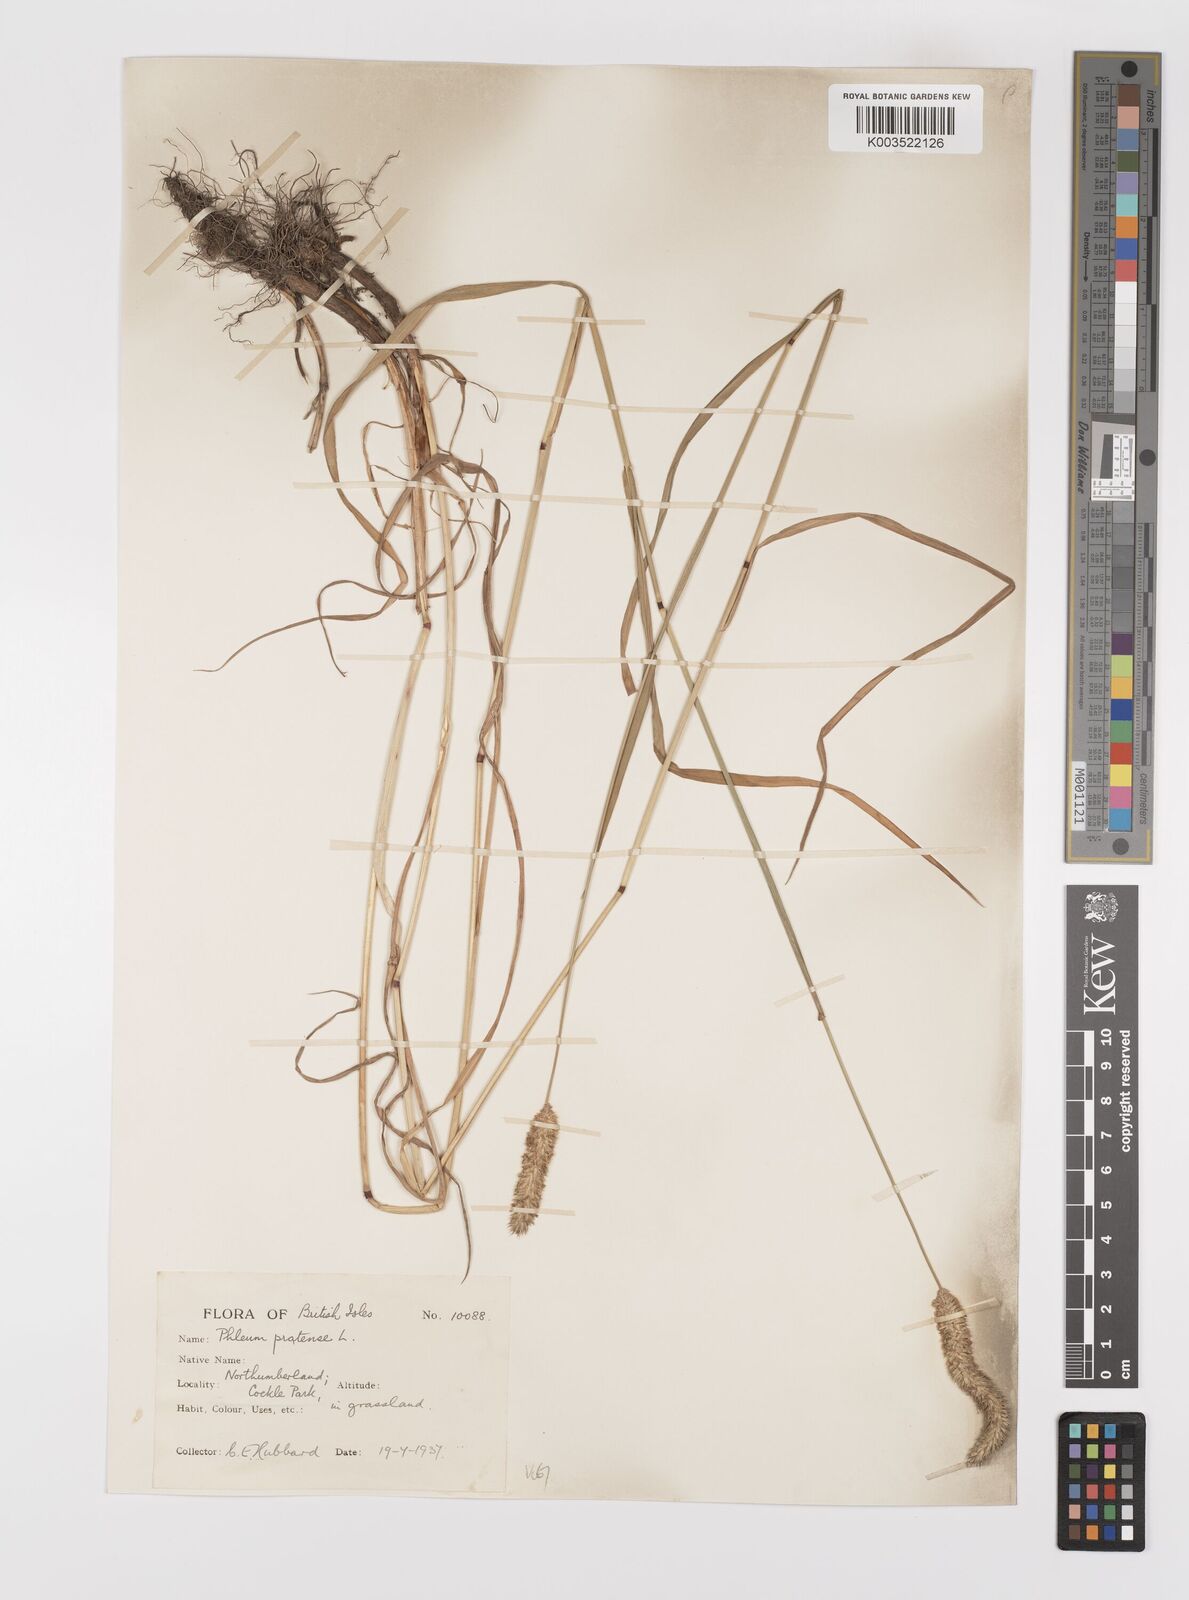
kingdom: Plantae
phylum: Tracheophyta
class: Liliopsida
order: Poales
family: Poaceae
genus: Phleum
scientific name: Phleum pratense
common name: Timothy grass
